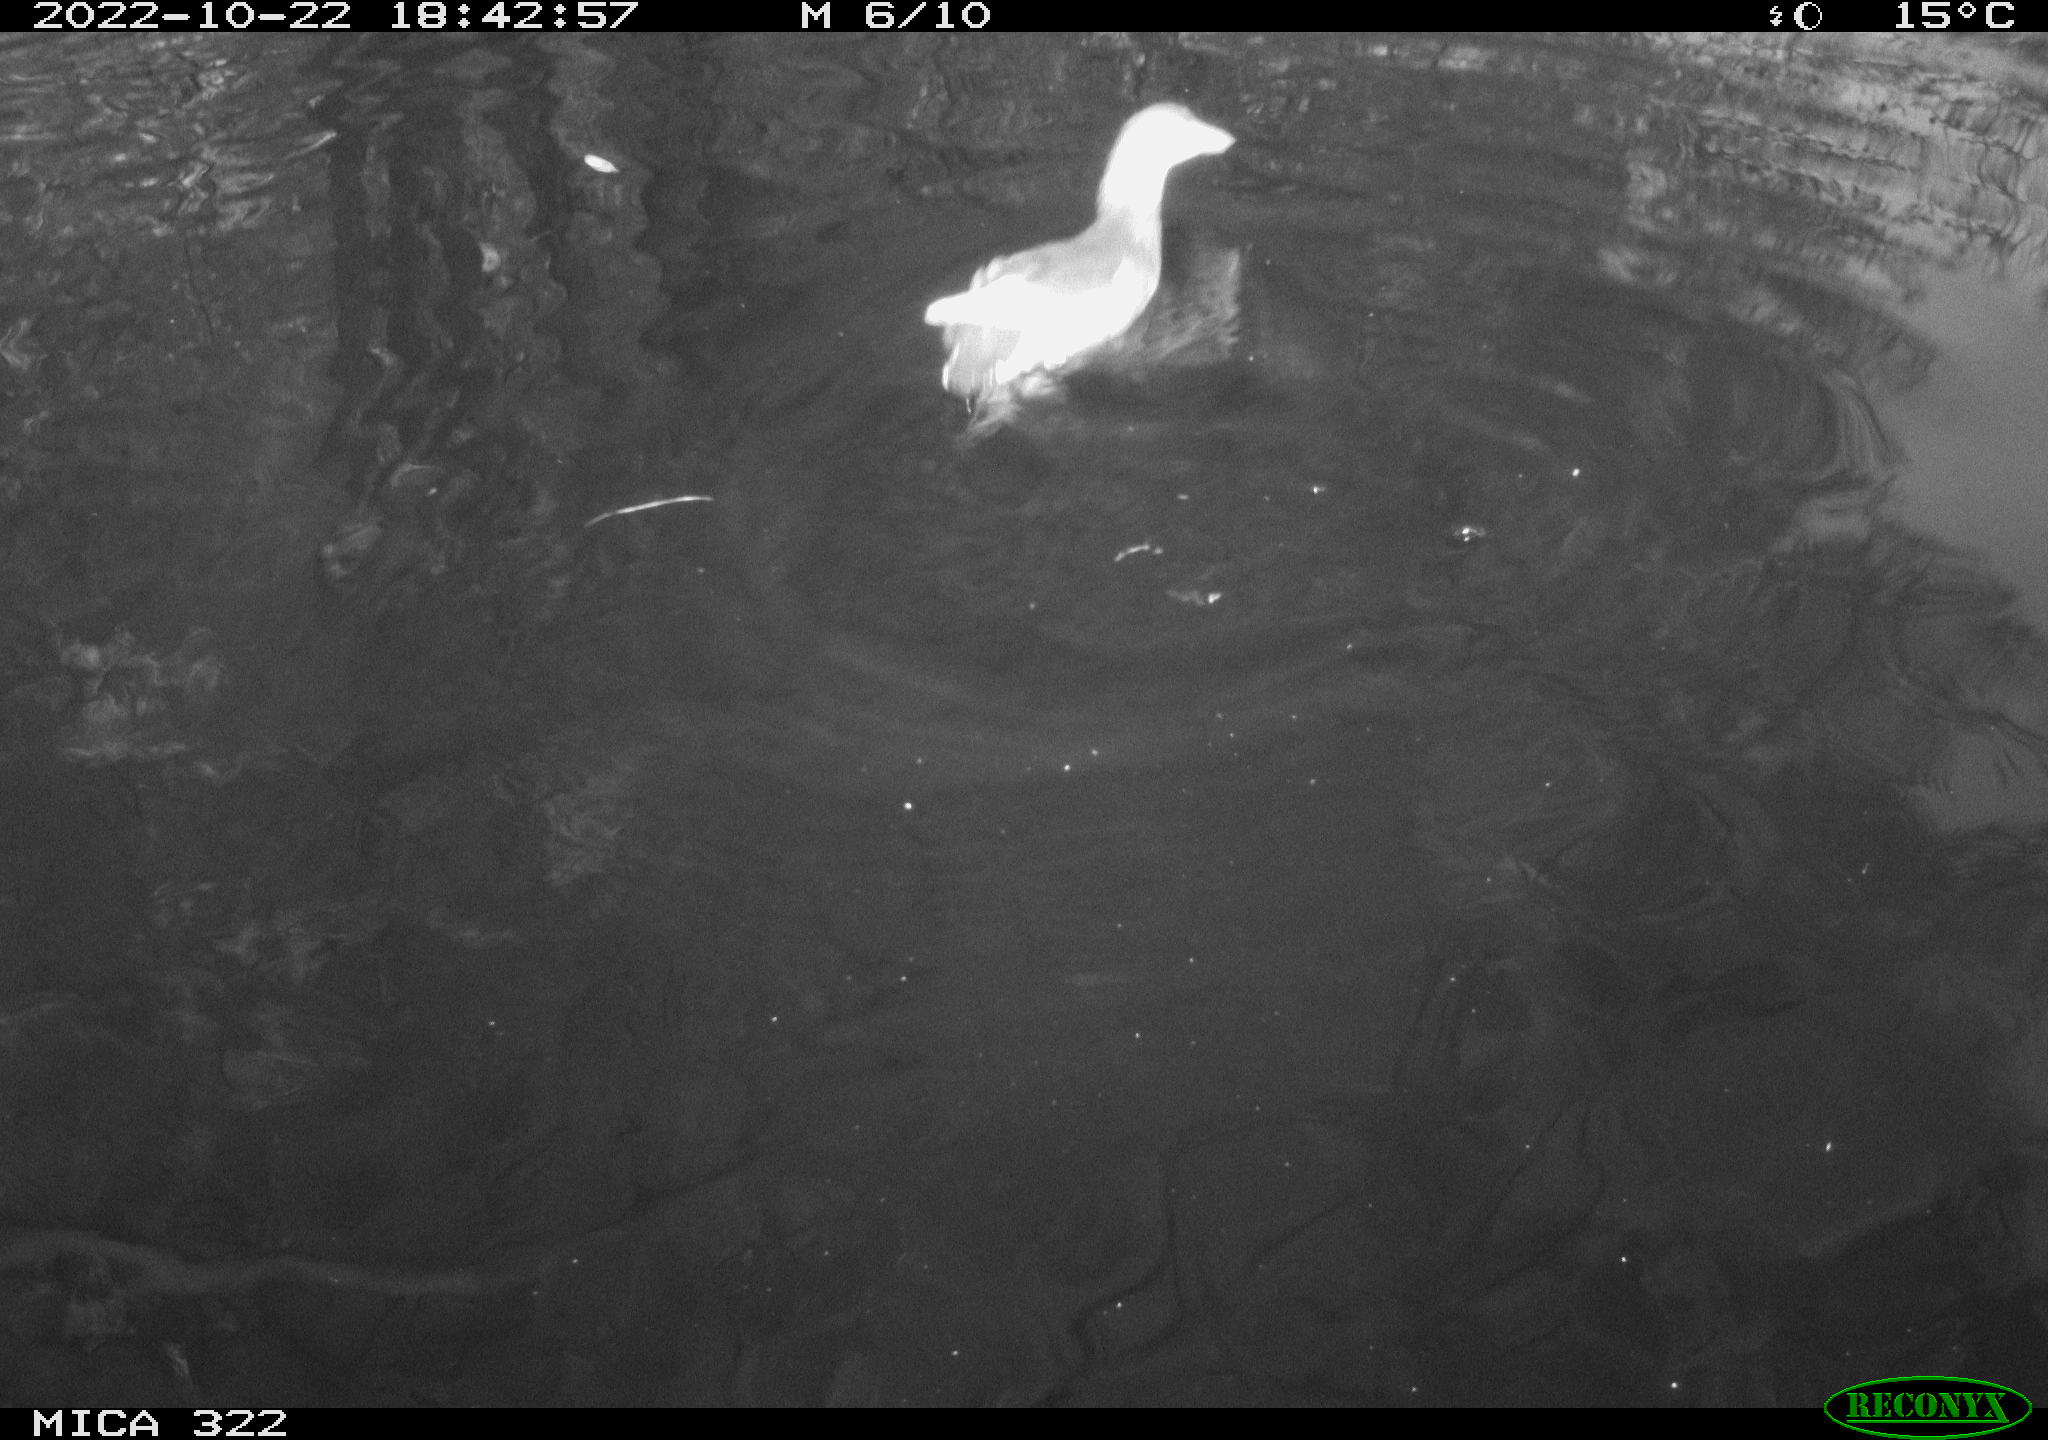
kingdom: Animalia
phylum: Chordata
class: Aves
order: Gruiformes
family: Rallidae
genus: Gallinula
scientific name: Gallinula chloropus
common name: Common moorhen
